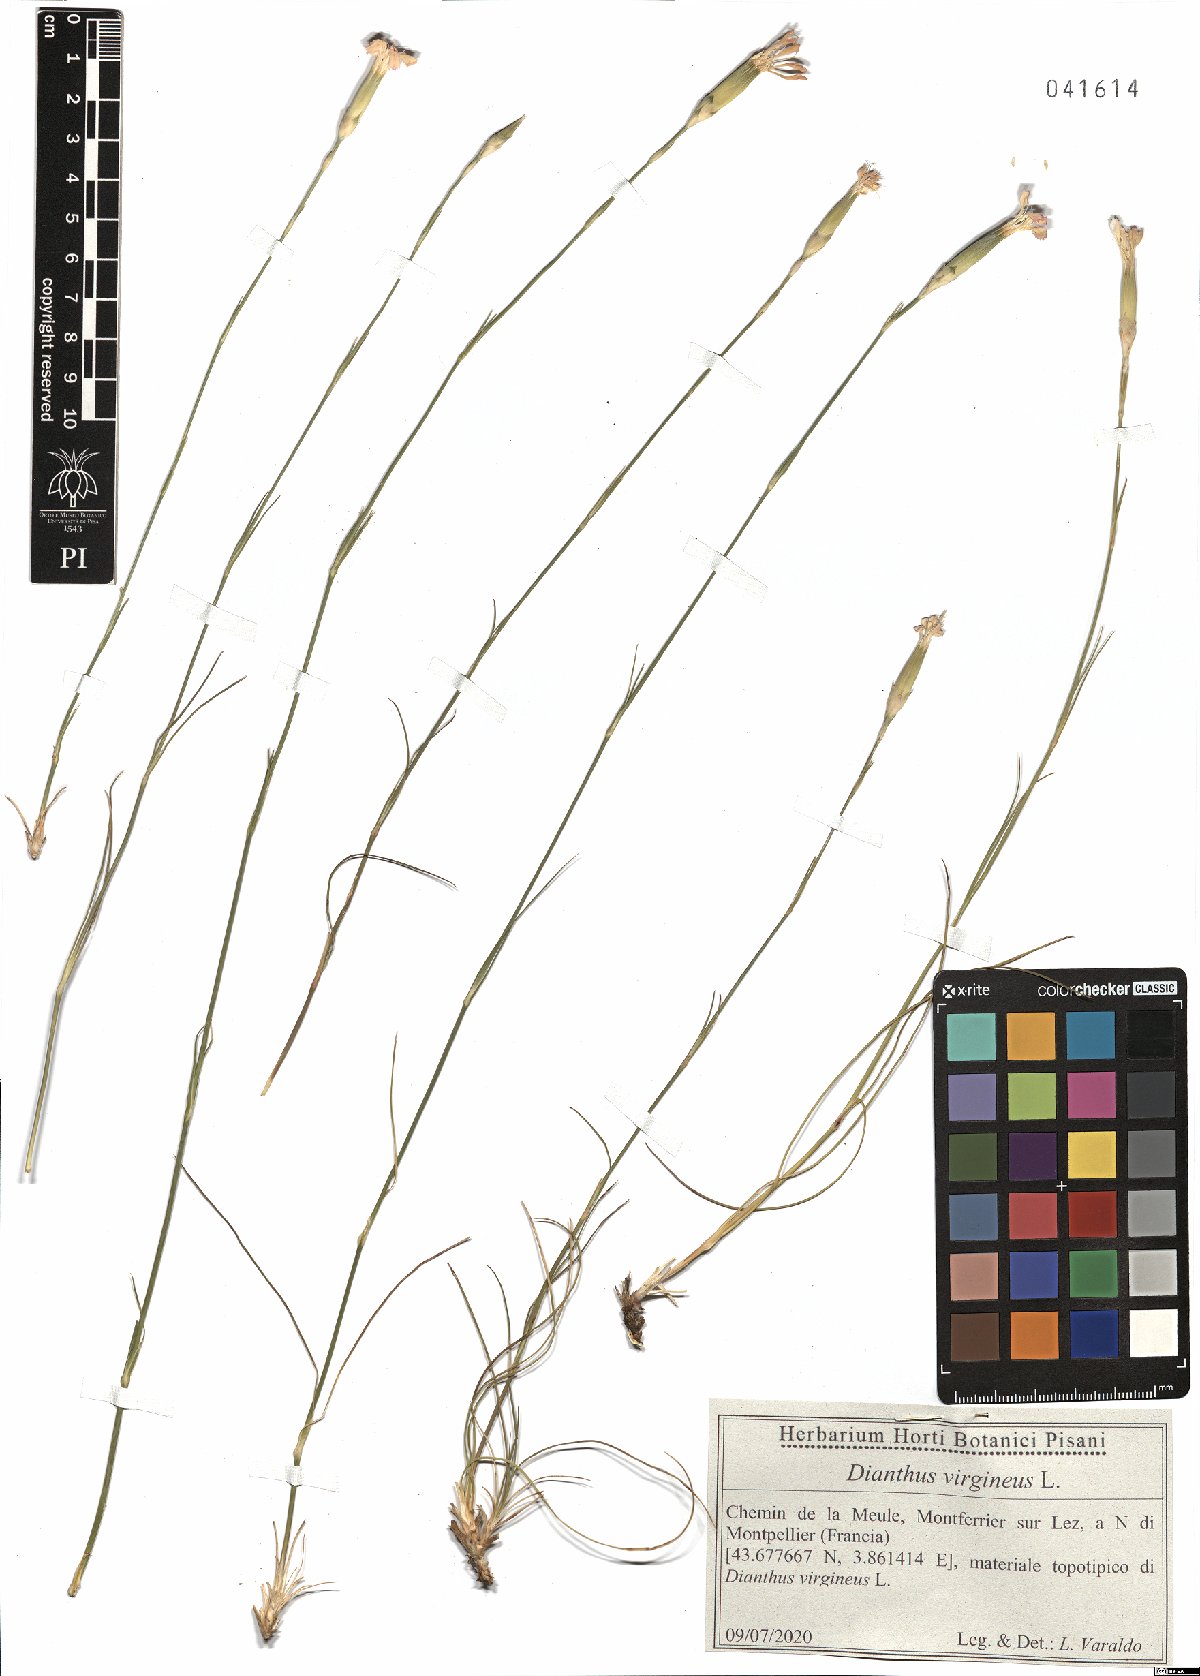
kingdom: Plantae
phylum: Tracheophyta
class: Magnoliopsida
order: Caryophyllales
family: Caryophyllaceae
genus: Dianthus
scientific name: Dianthus virgineus
